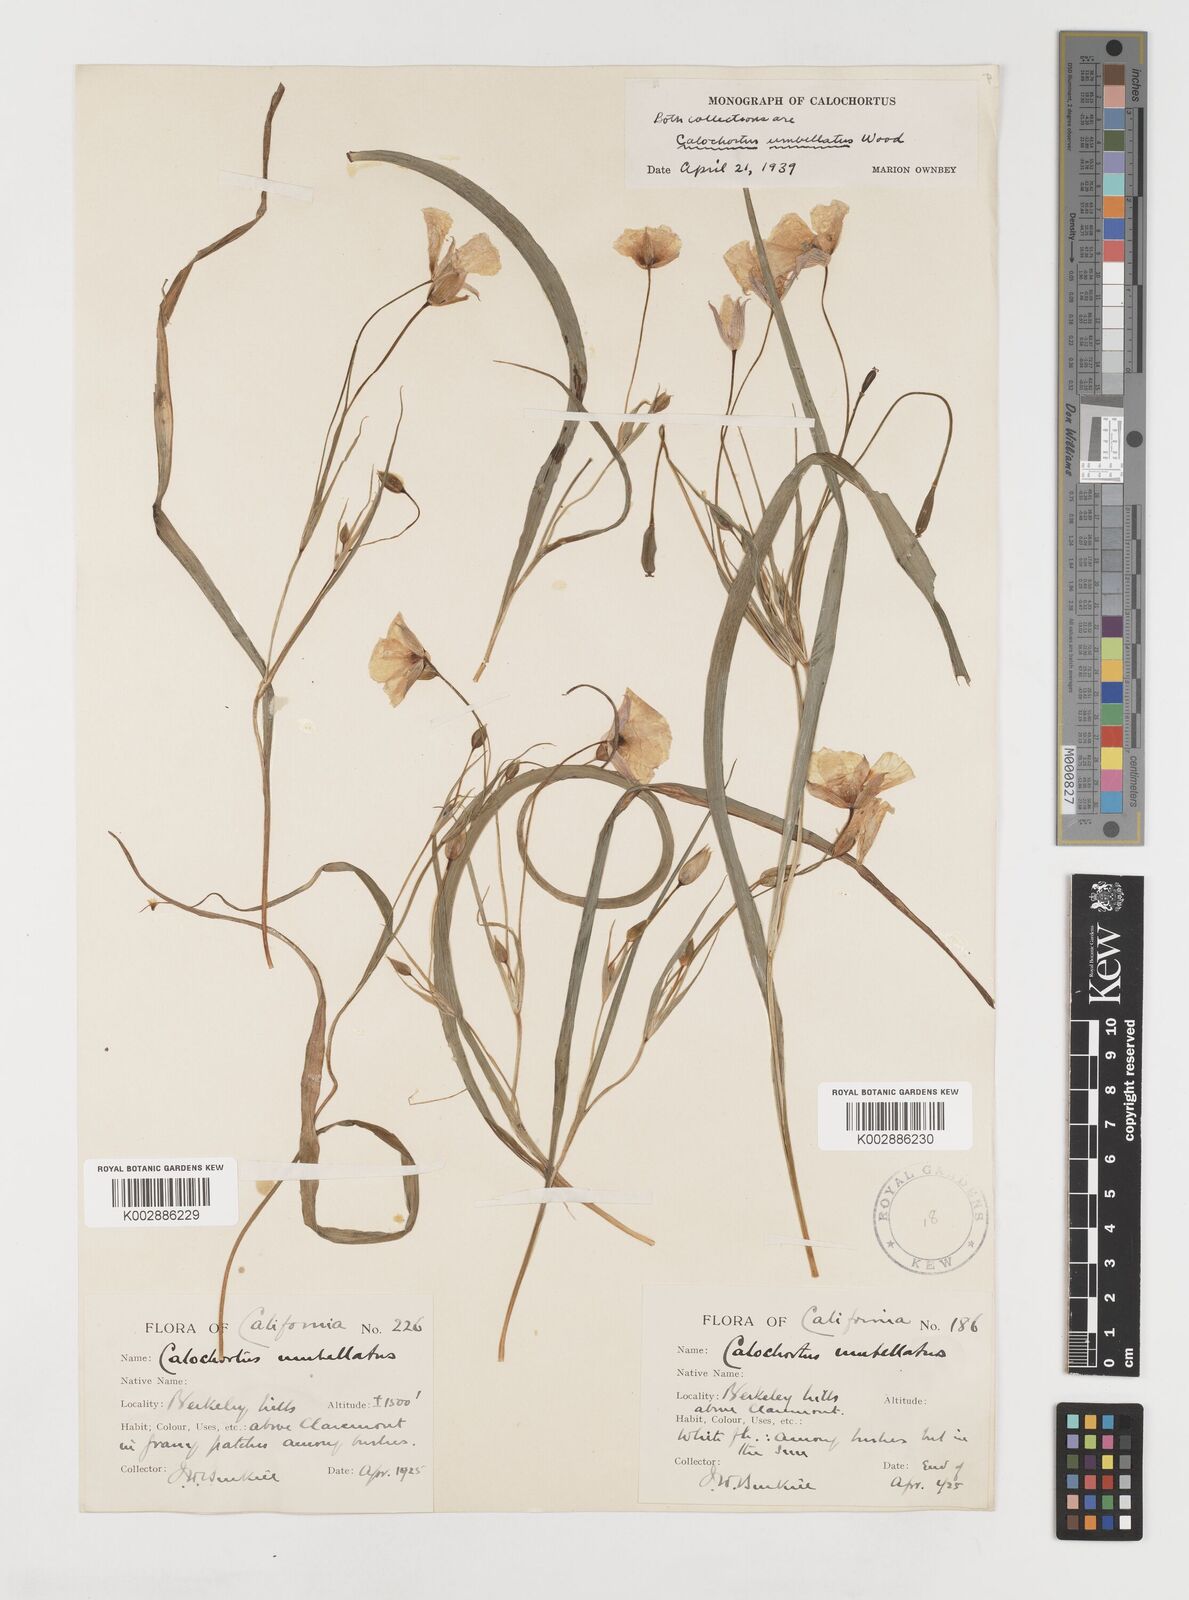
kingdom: Plantae
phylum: Tracheophyta
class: Liliopsida
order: Liliales
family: Liliaceae
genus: Calochortus
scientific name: Calochortus umbellatus
